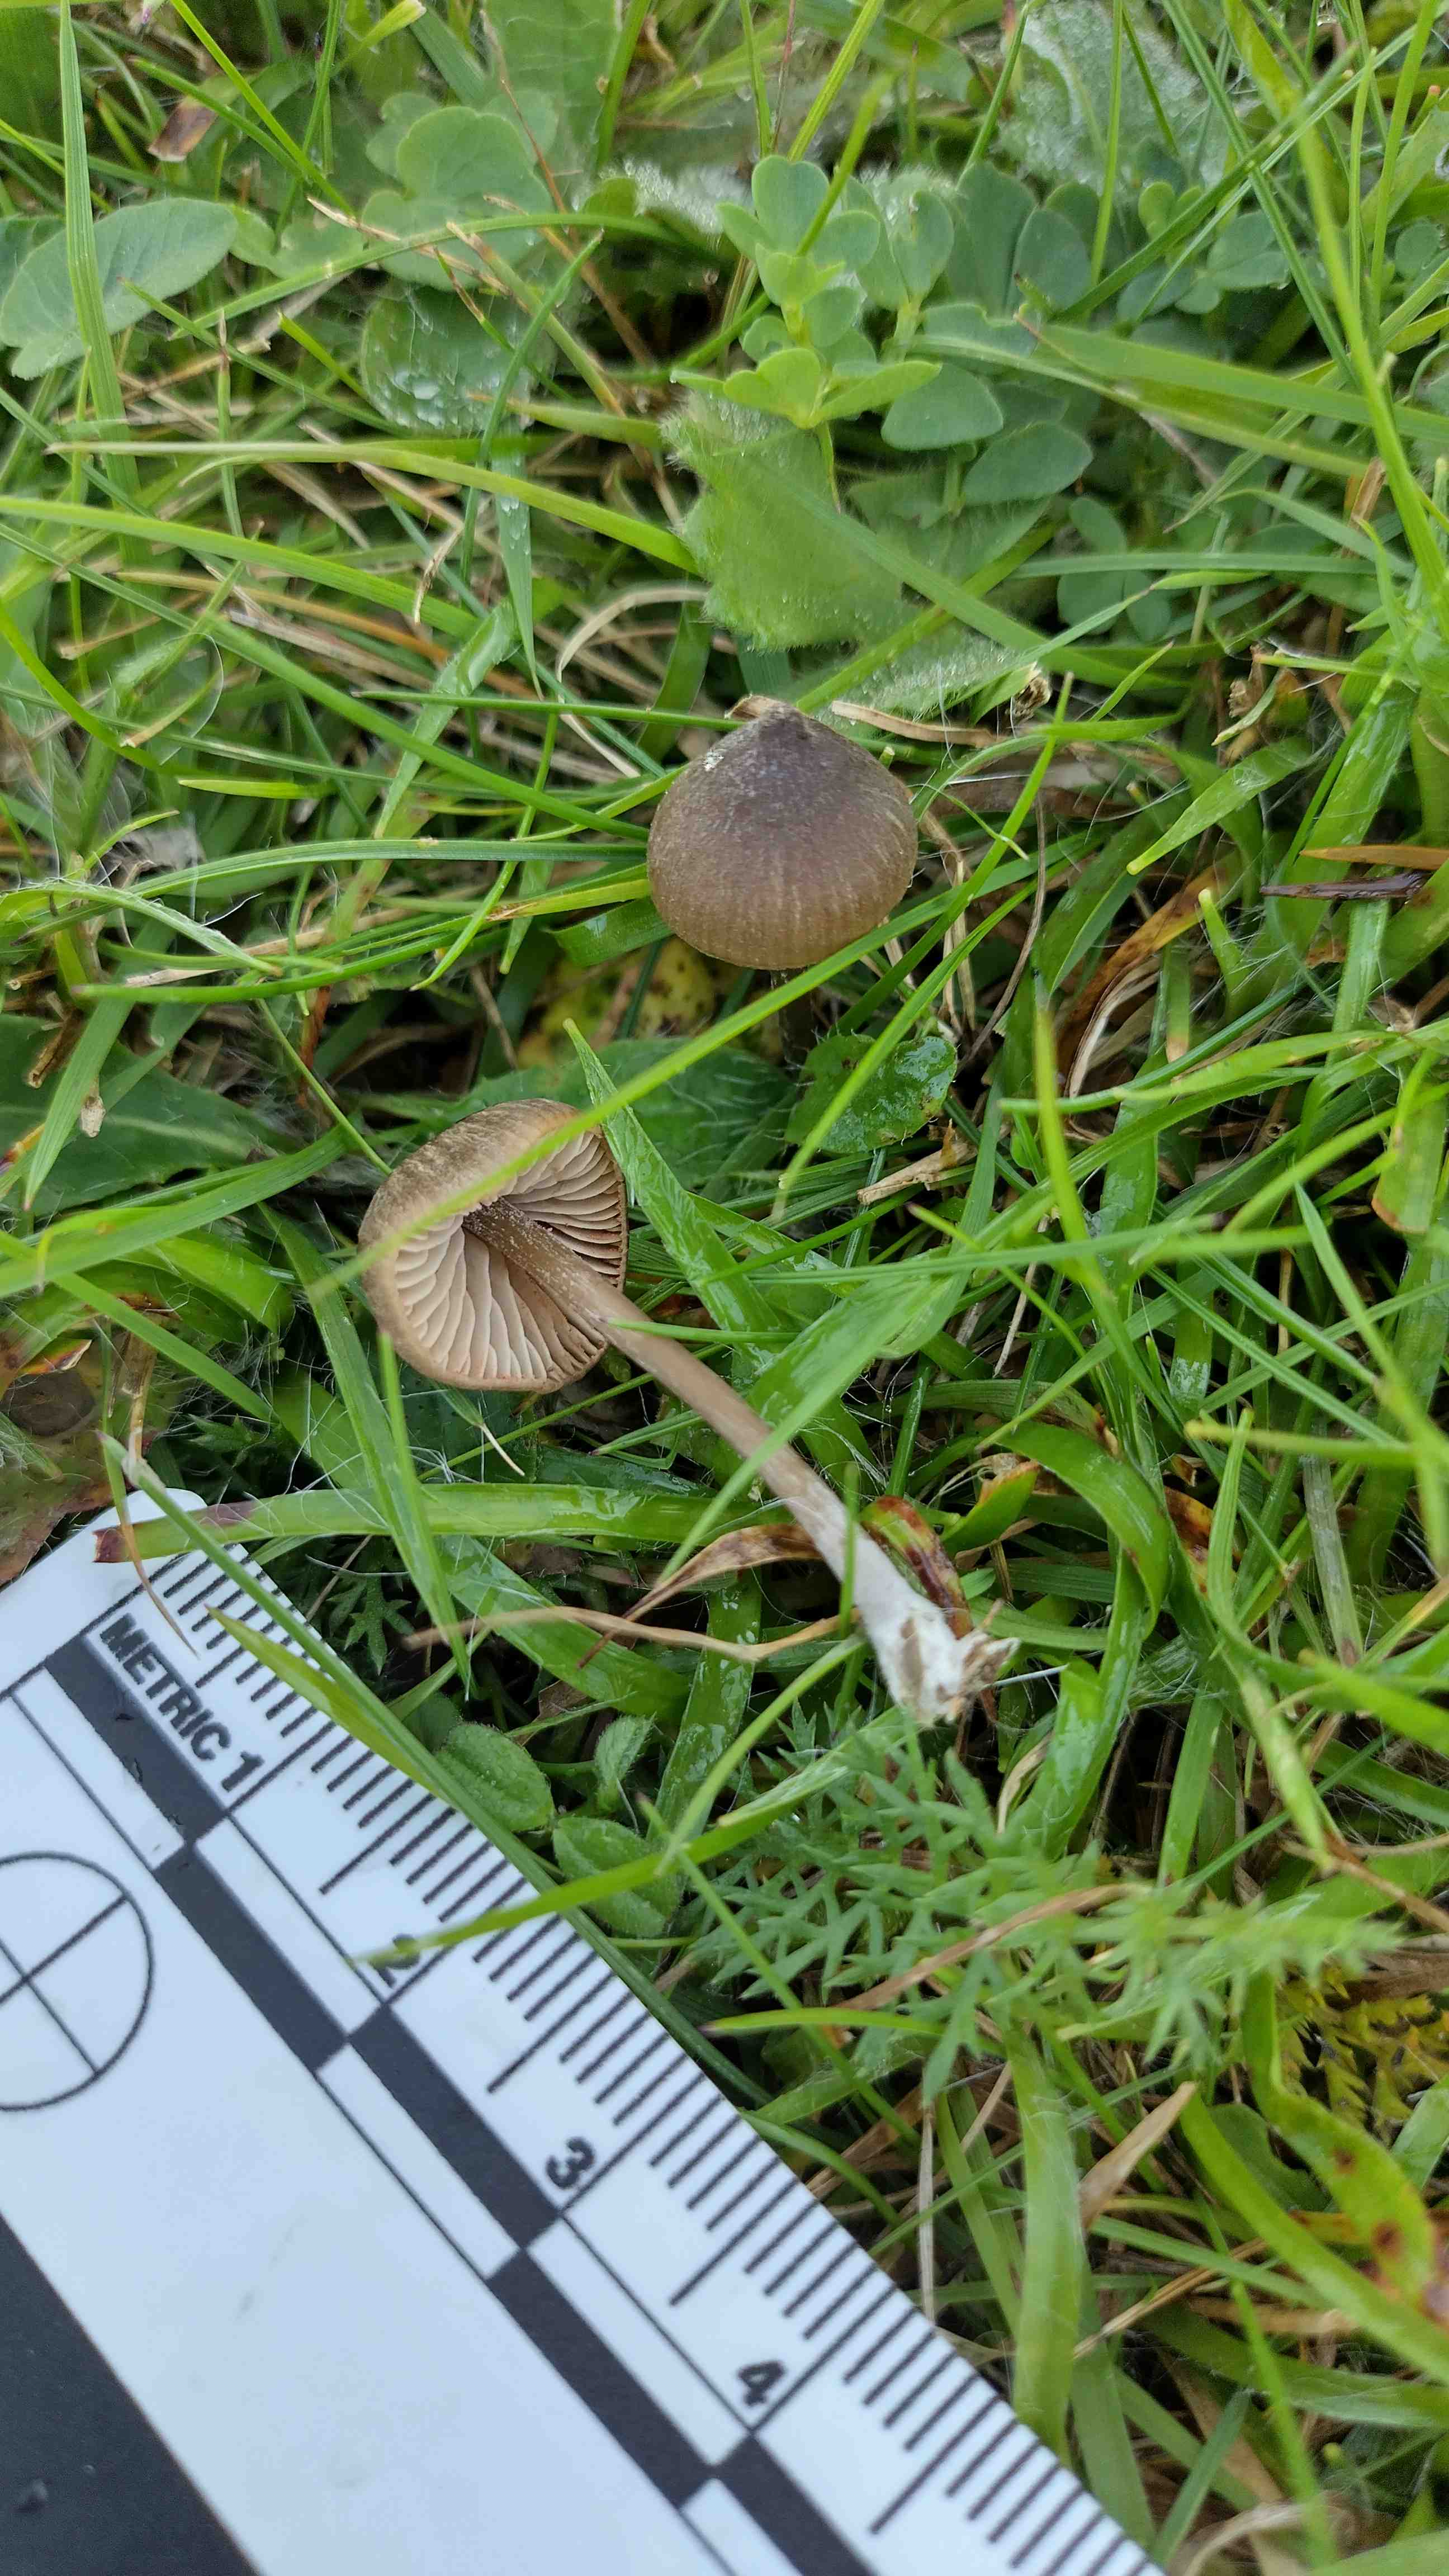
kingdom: Fungi
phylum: Basidiomycota
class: Agaricomycetes
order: Agaricales
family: Entolomataceae
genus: Entoloma
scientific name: Entoloma clandestinum
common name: tykbladet rødblad
